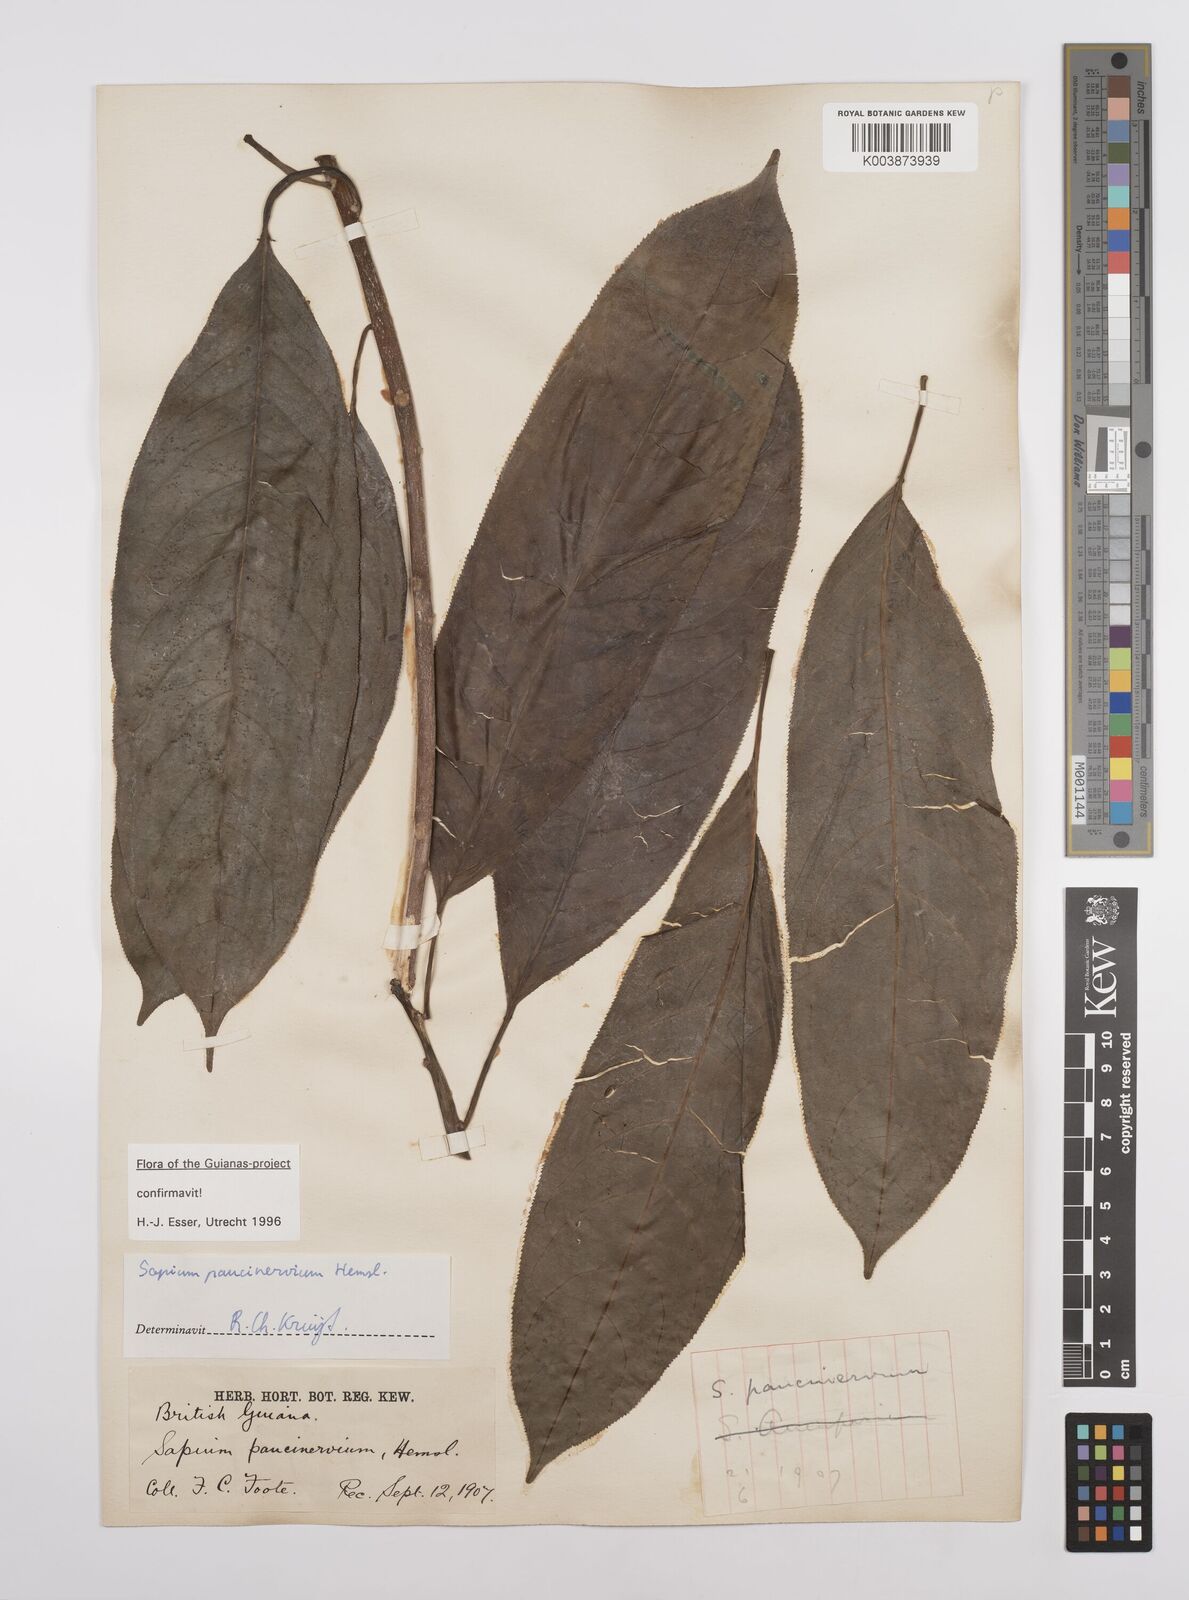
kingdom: Plantae
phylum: Tracheophyta
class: Magnoliopsida
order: Malpighiales
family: Euphorbiaceae
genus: Sapium
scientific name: Sapium paucinervium
